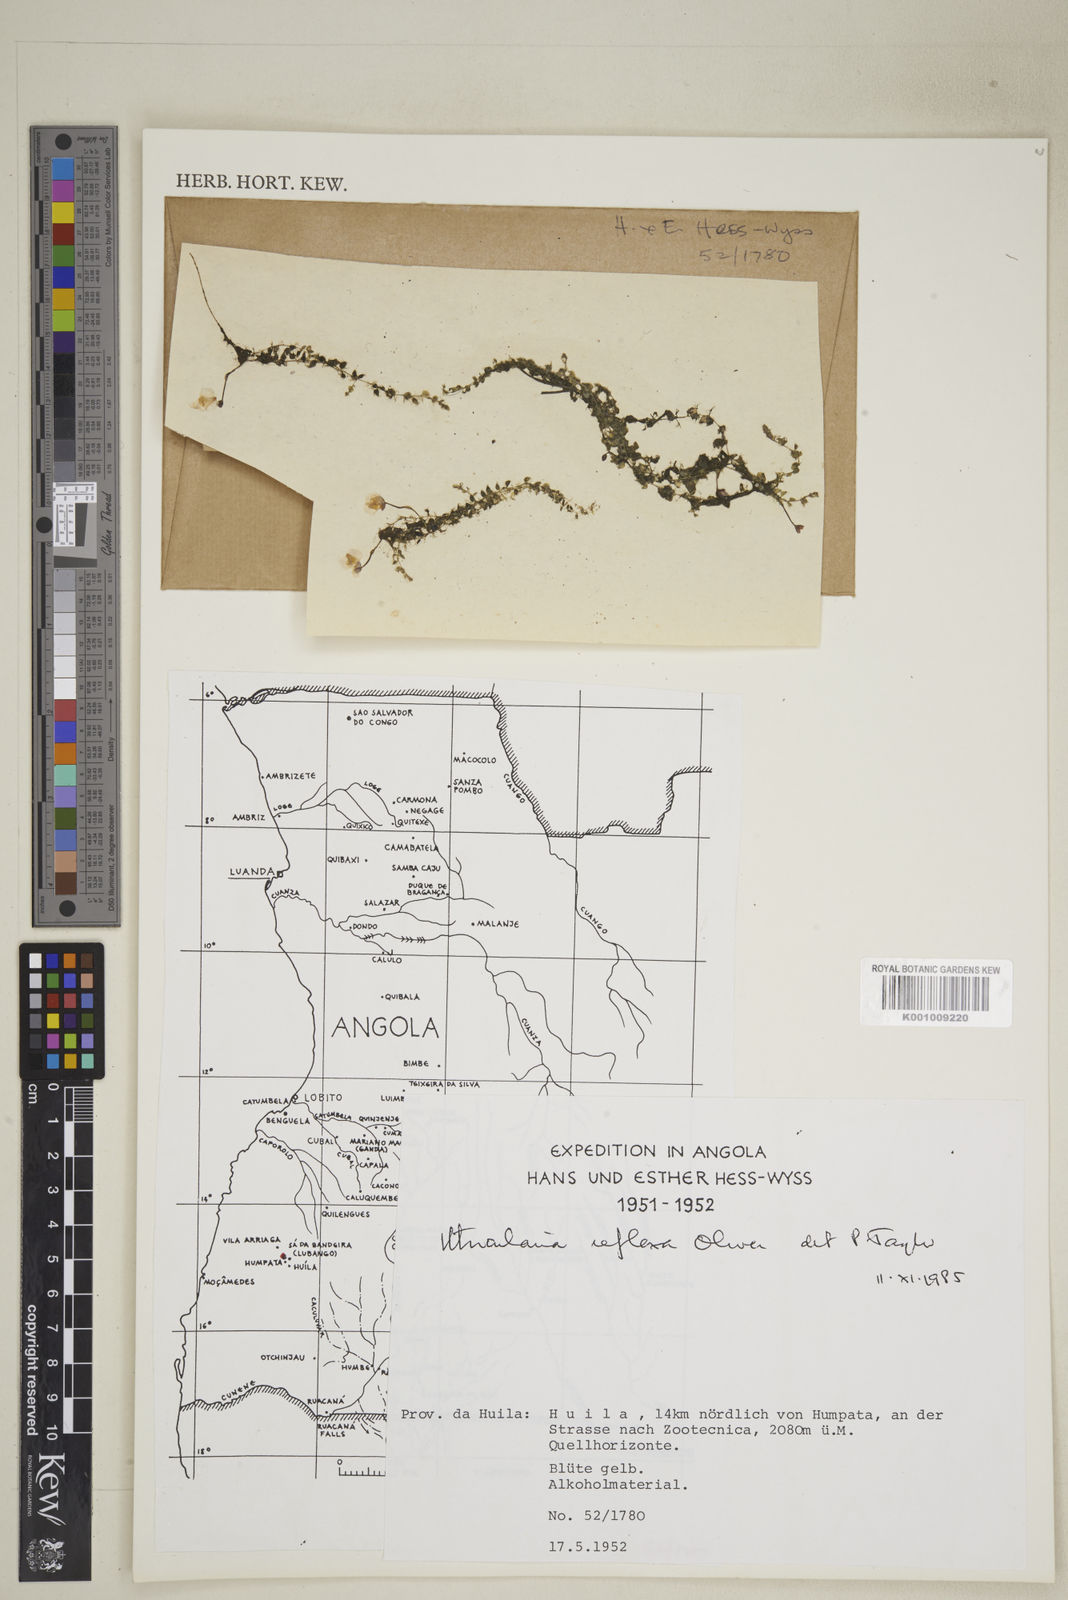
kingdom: Plantae
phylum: Tracheophyta
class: Magnoliopsida
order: Lamiales
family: Lentibulariaceae
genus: Utricularia
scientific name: Utricularia reflexa
